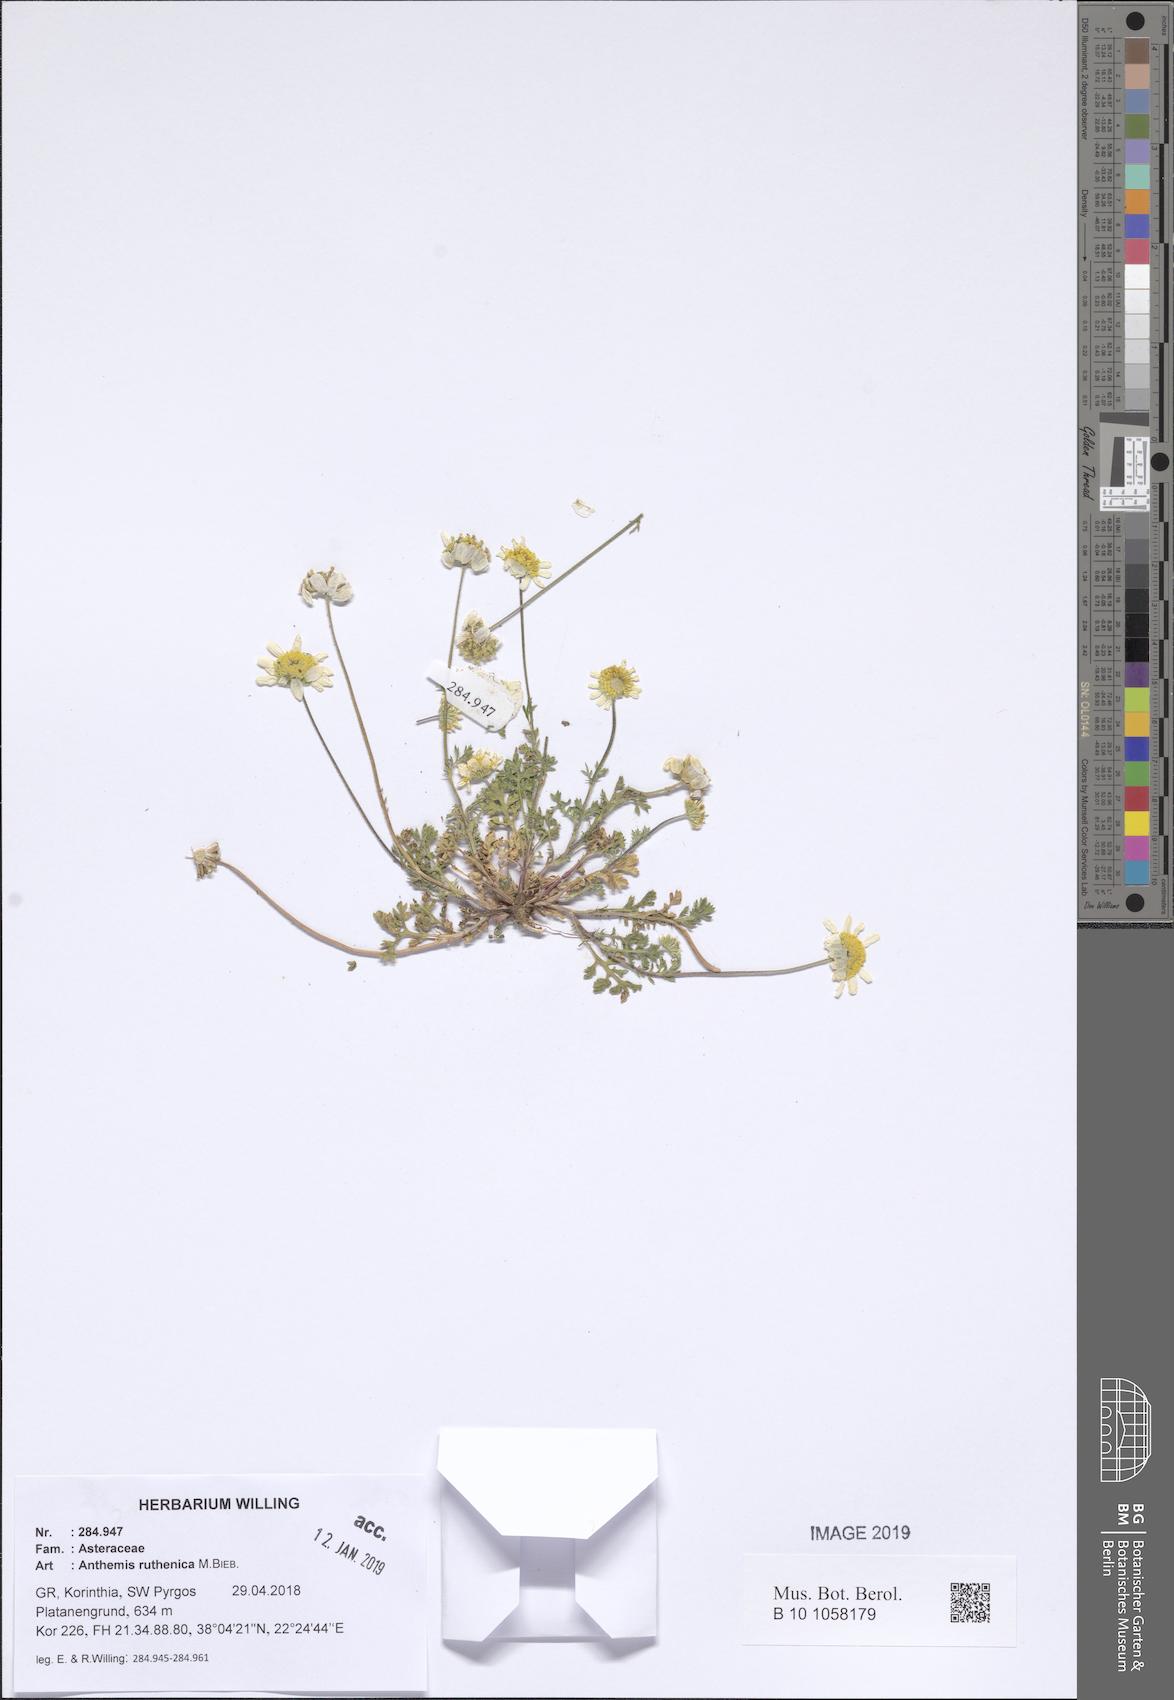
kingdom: Plantae
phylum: Tracheophyta
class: Magnoliopsida
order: Asterales
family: Asteraceae
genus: Anthemis
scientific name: Anthemis ruthenica
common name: Eastern chamomile
